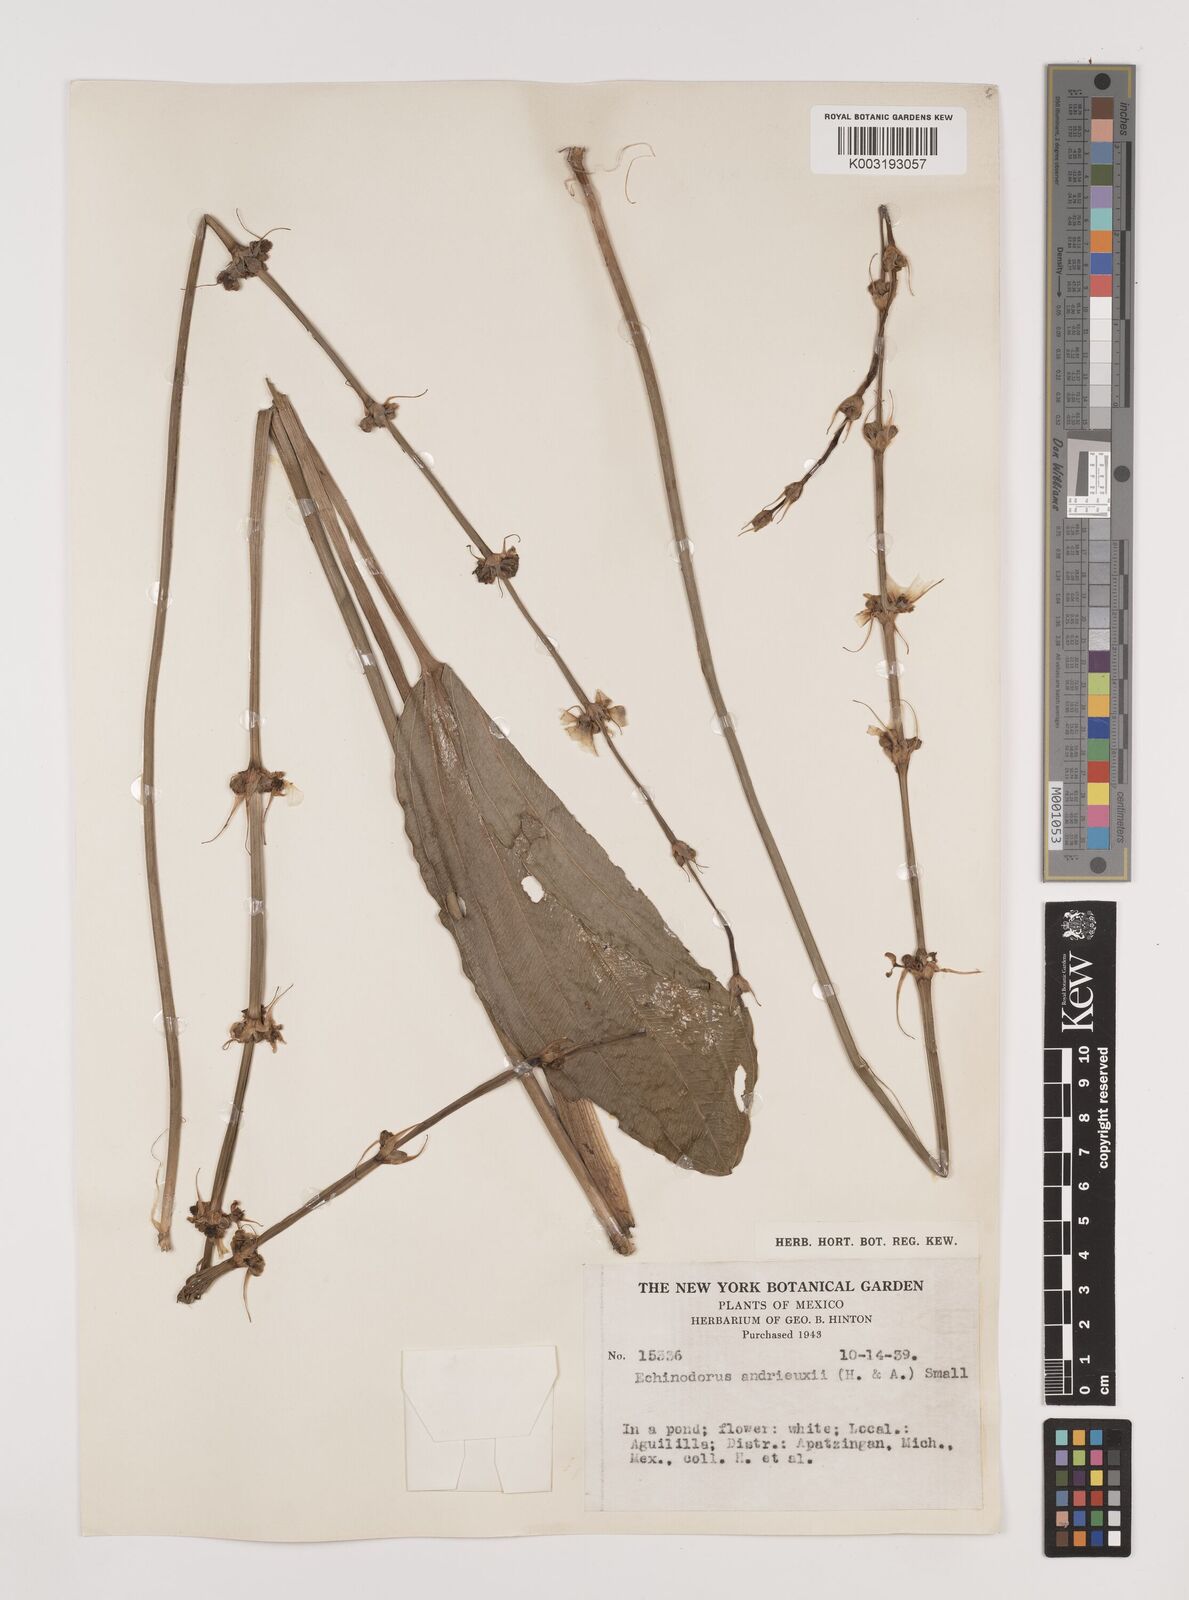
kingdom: Plantae
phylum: Tracheophyta
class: Liliopsida
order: Alismatales
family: Alismataceae
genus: Aquarius
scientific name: Aquarius subulatus
